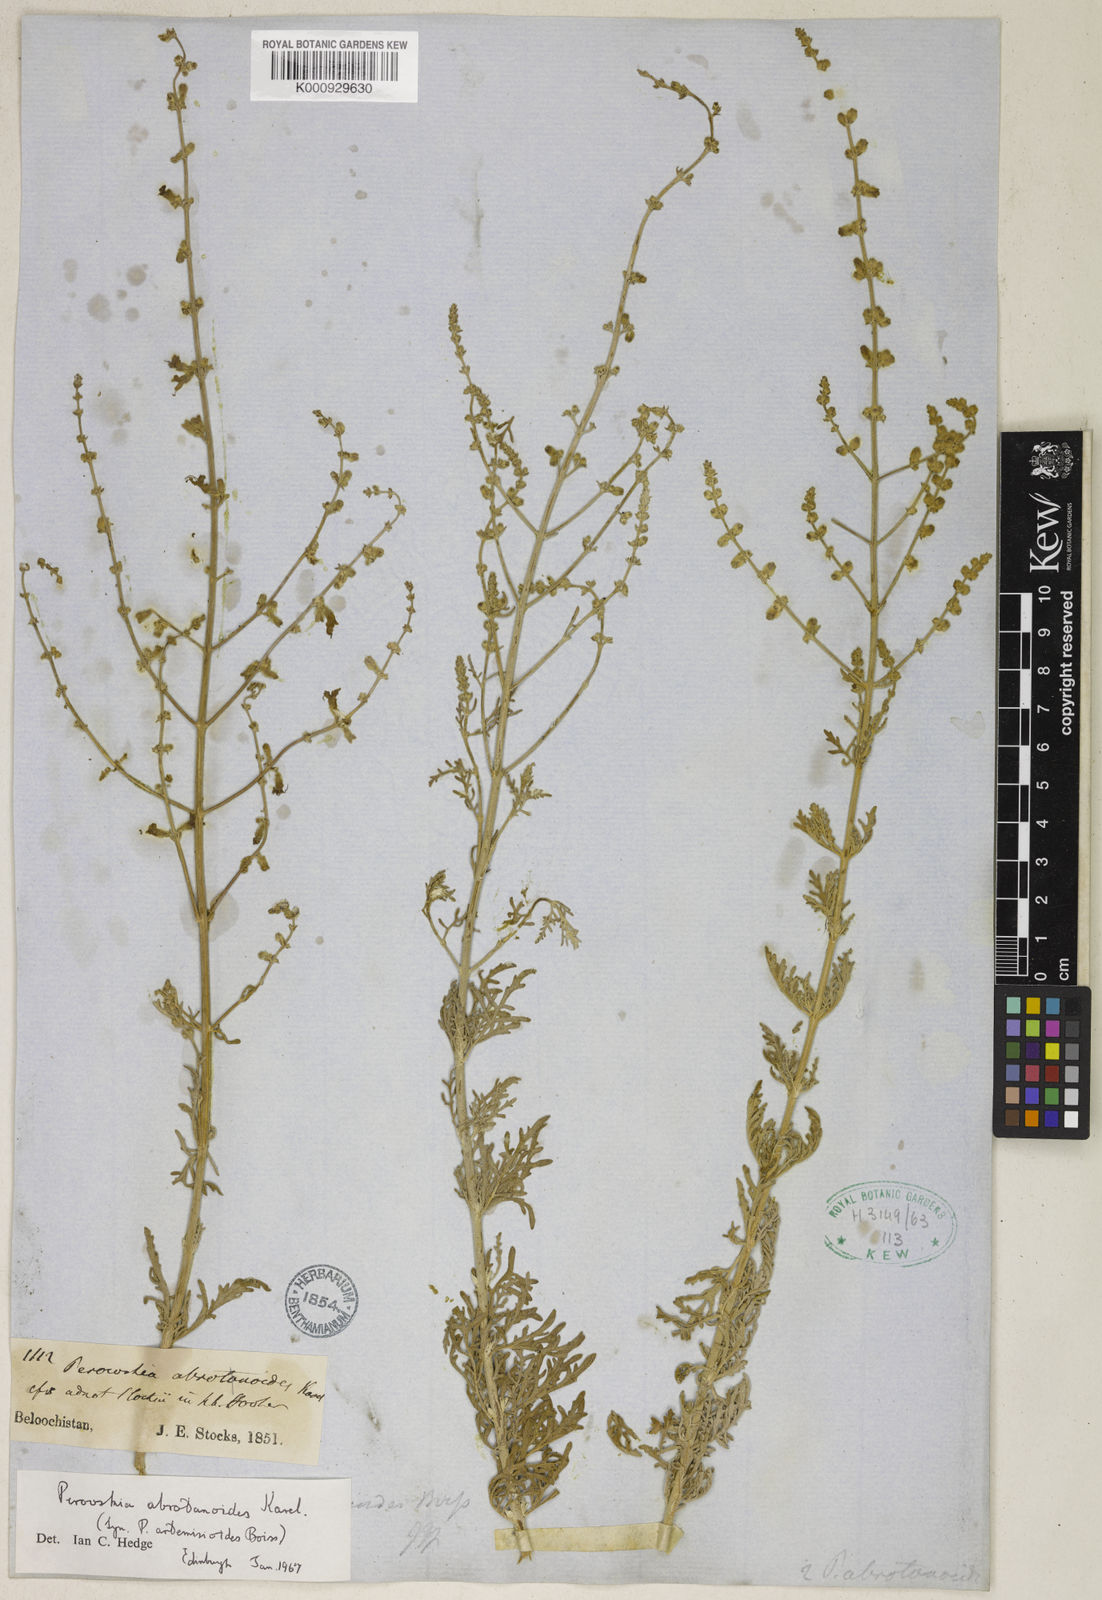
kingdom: Plantae
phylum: Tracheophyta
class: Magnoliopsida
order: Lamiales
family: Lamiaceae
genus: Salvia
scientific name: Salvia abrotanoides
